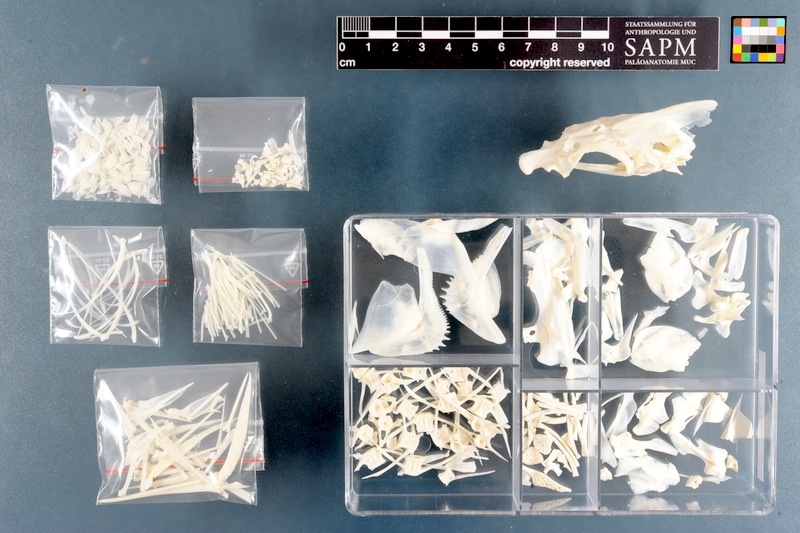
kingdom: Animalia
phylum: Chordata
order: Perciformes
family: Haemulidae
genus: Pomadasys
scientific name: Pomadasys commersonnii
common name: Smallspotted grunter
